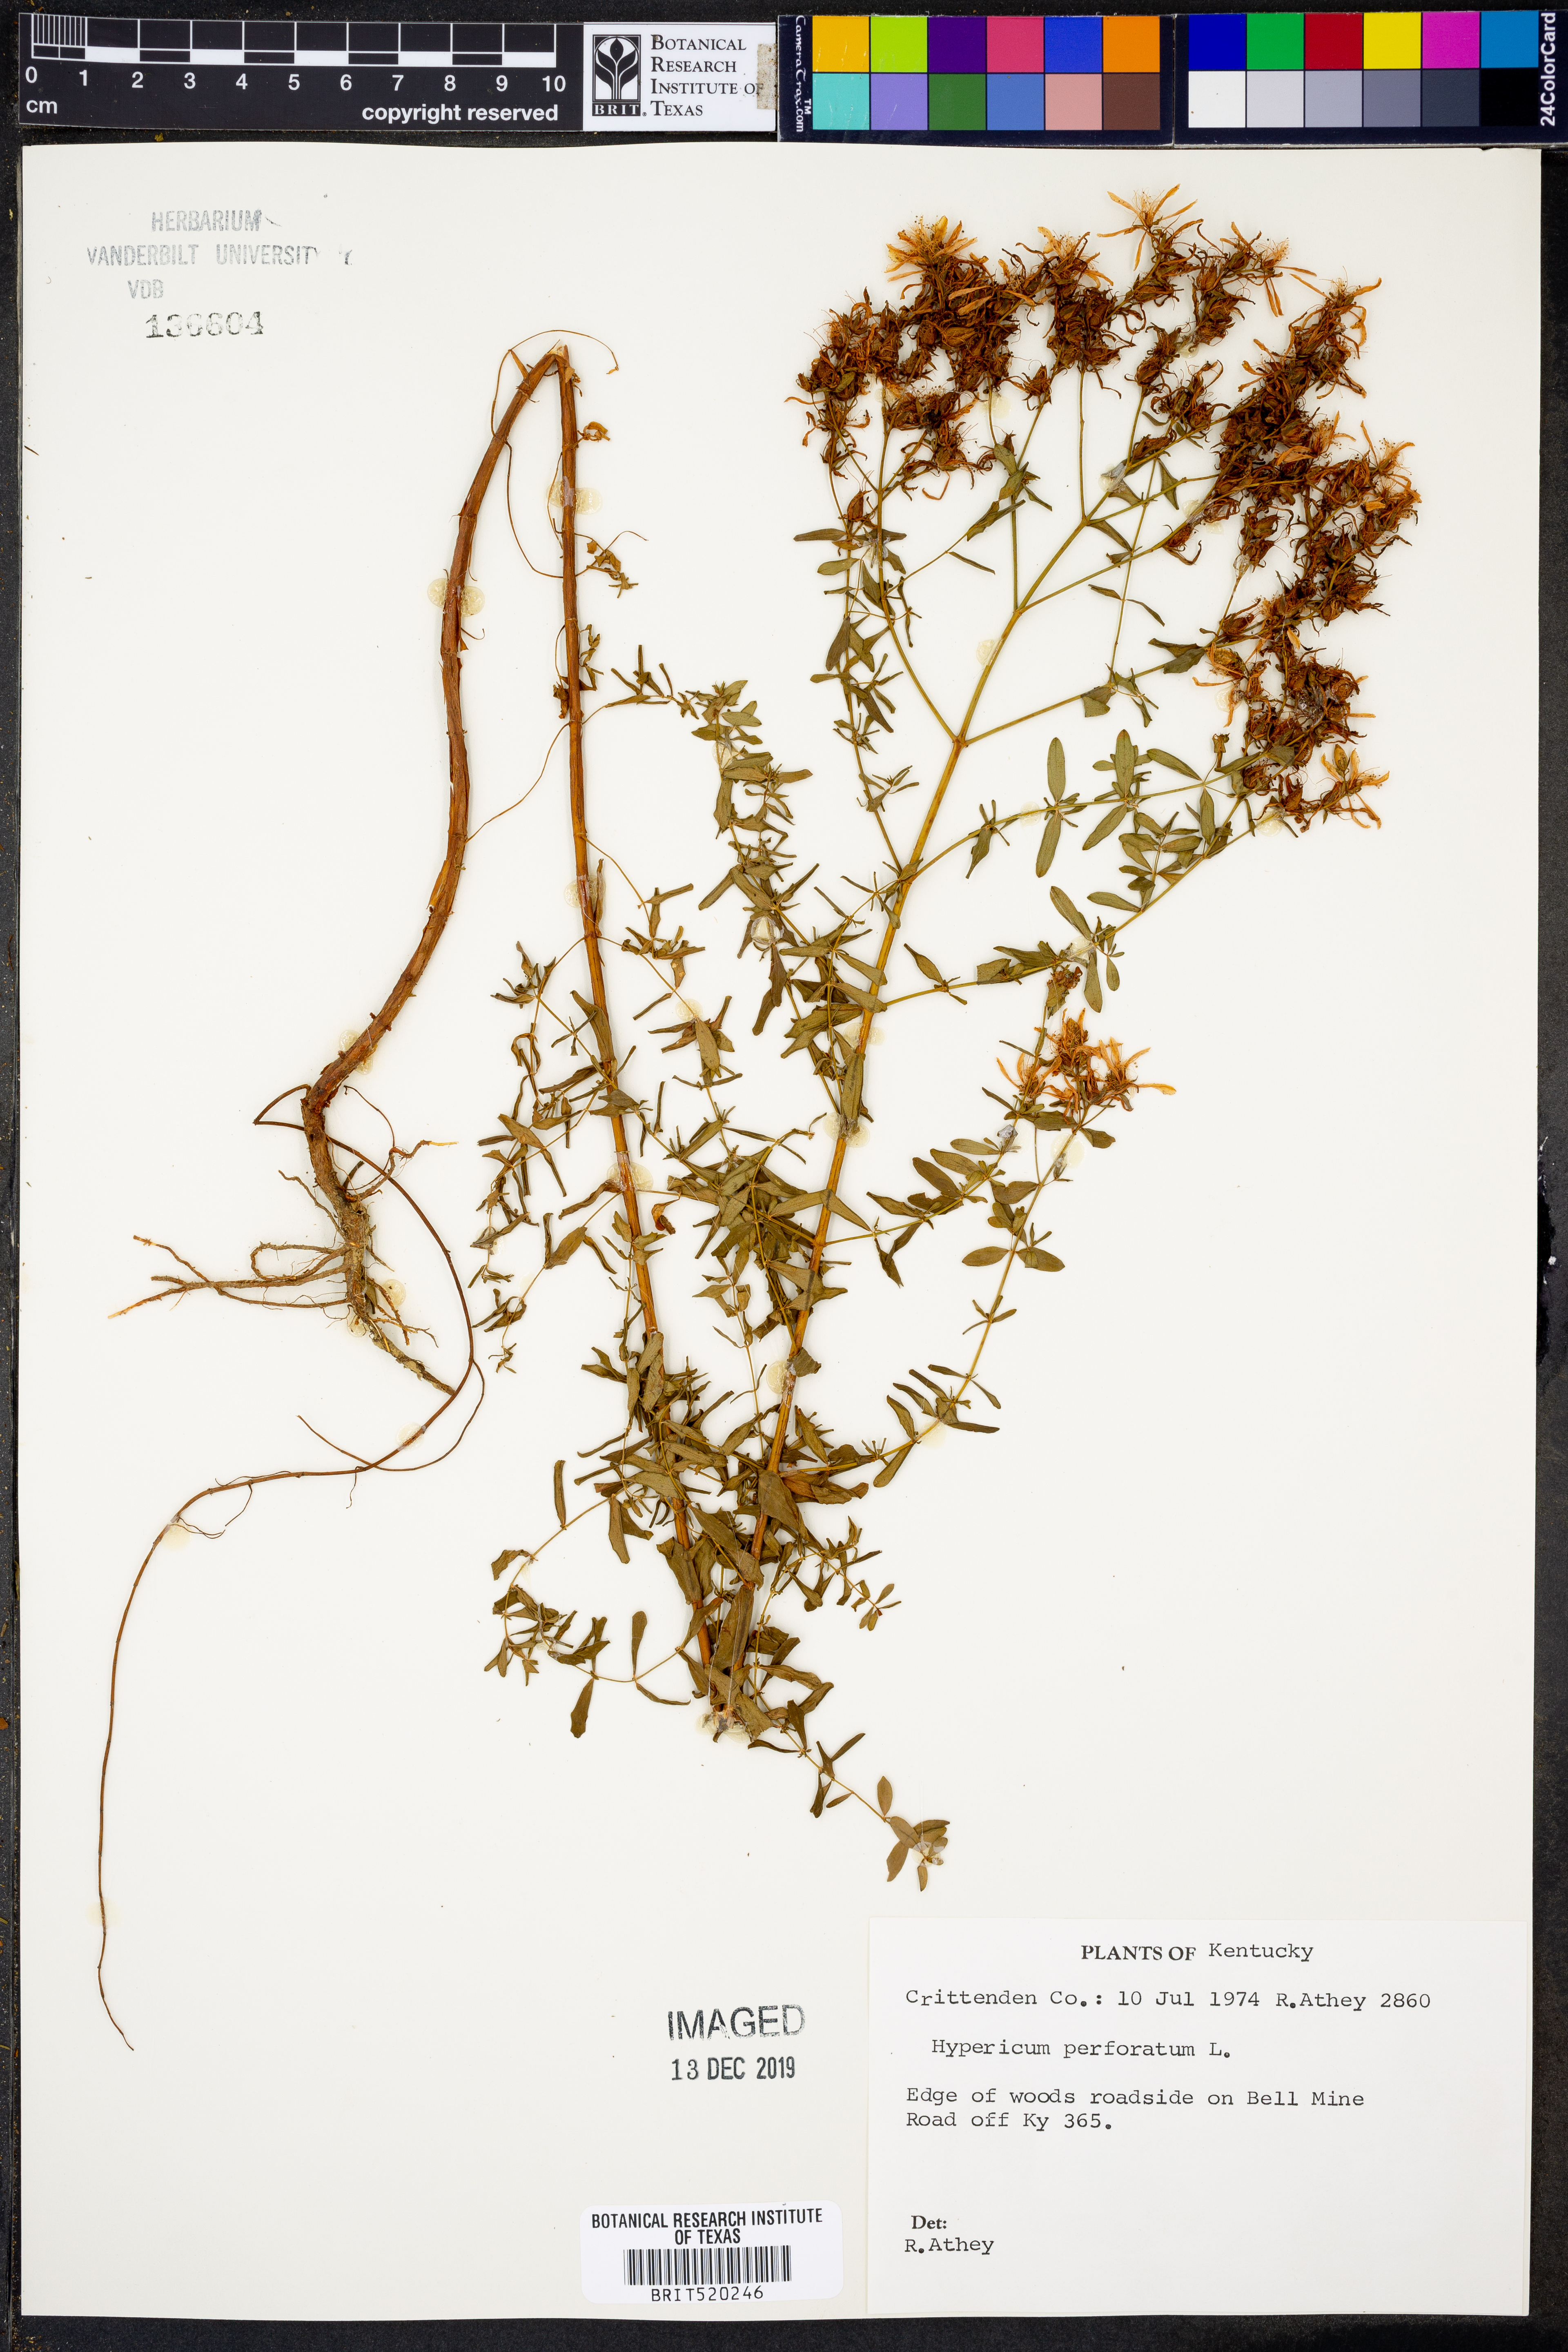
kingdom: Plantae
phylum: Tracheophyta
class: Magnoliopsida
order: Malpighiales
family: Hypericaceae
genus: Hypericum
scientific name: Hypericum perforatum
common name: Common st. johnswort
